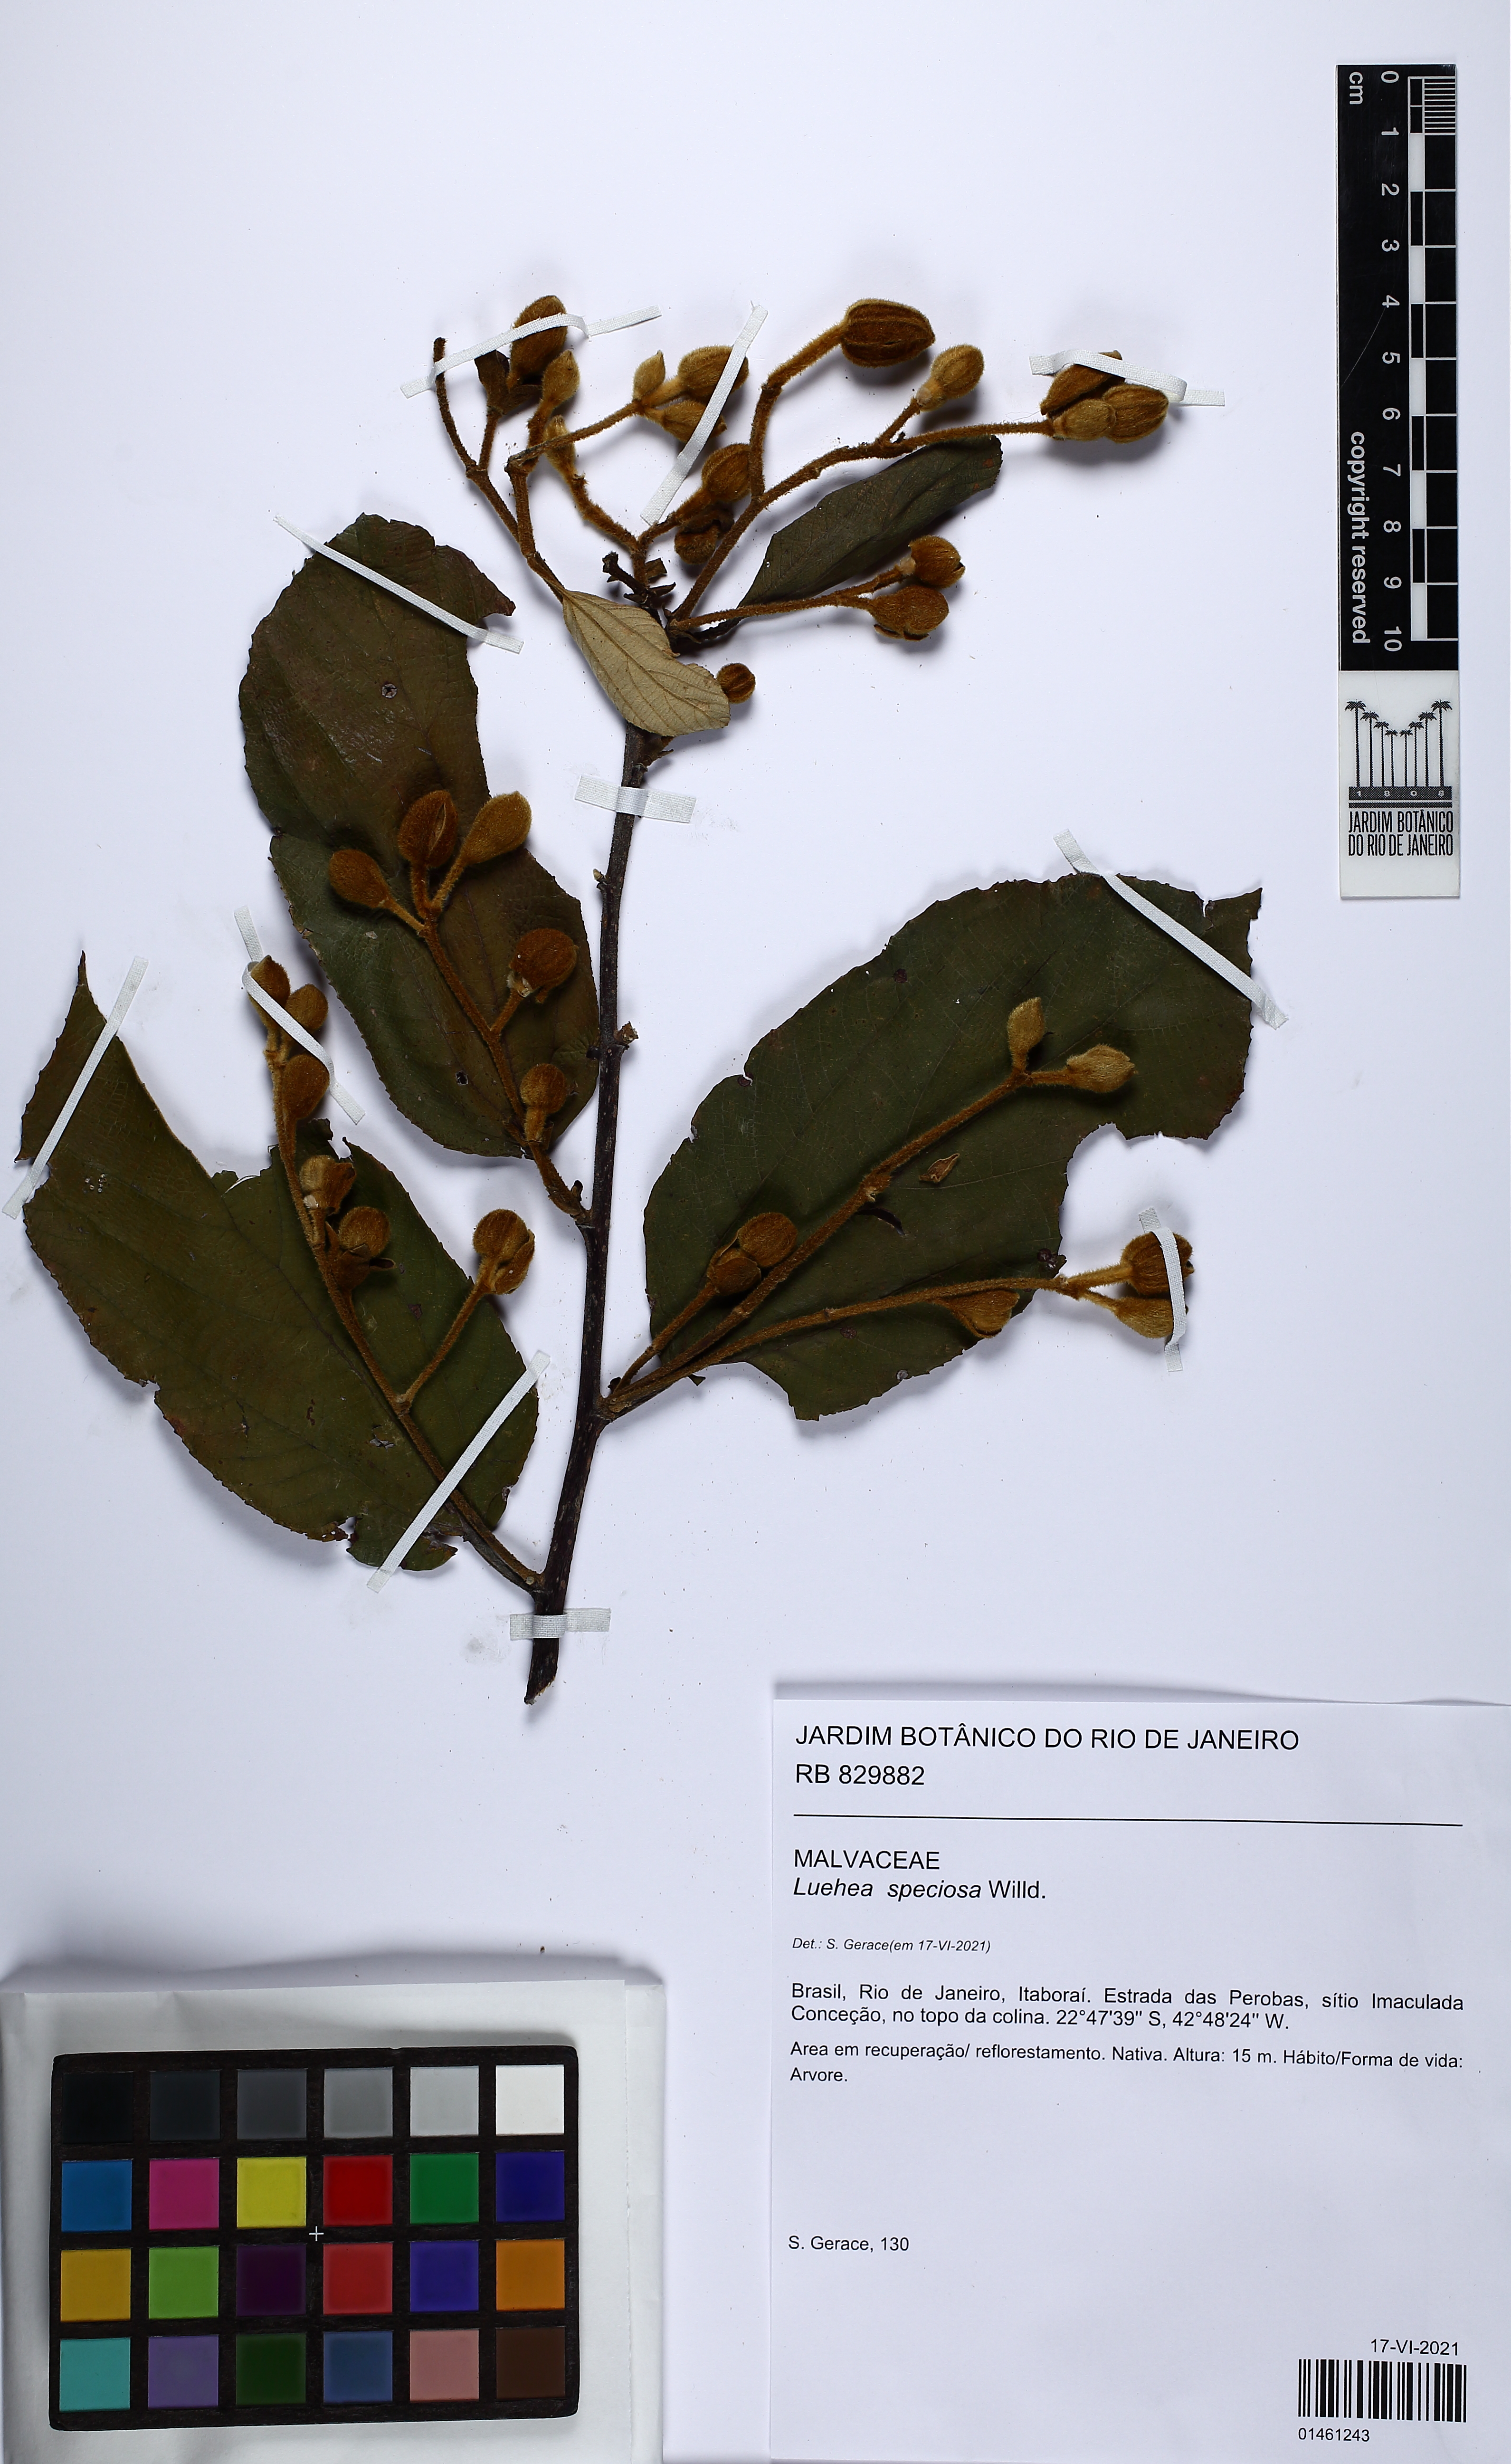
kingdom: Plantae
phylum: Tracheophyta
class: Magnoliopsida
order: Malvales
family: Malvaceae
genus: Luehea
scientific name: Luehea speciosa
